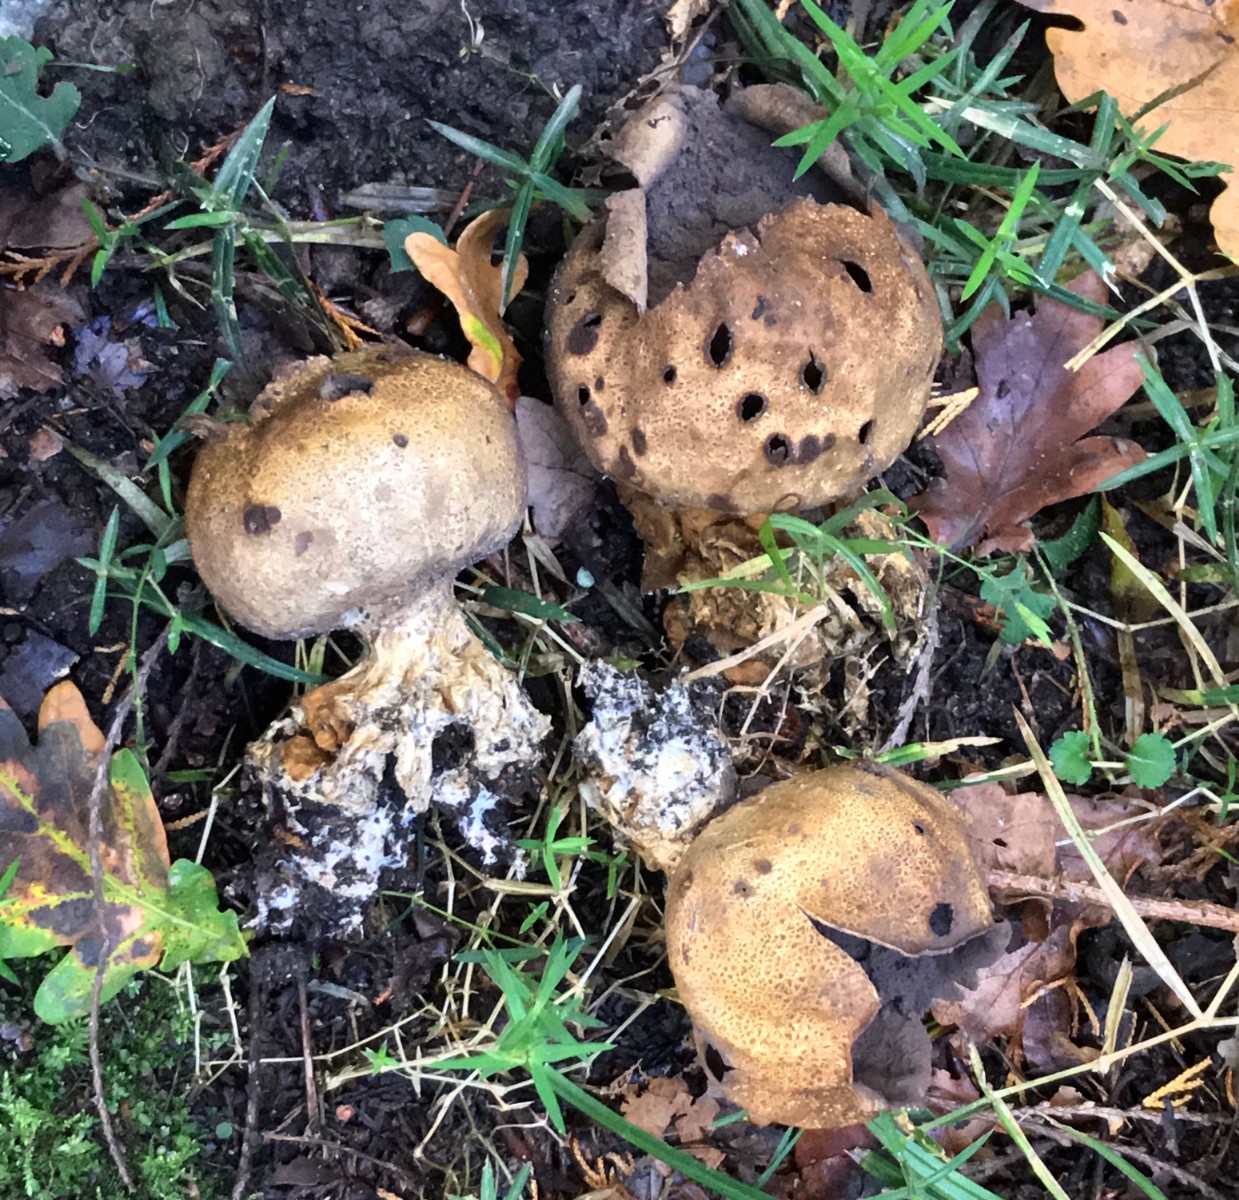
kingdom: Fungi
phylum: Basidiomycota
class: Agaricomycetes
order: Boletales
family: Sclerodermataceae
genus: Scleroderma
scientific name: Scleroderma verrucosum
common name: stilket bruskbold
